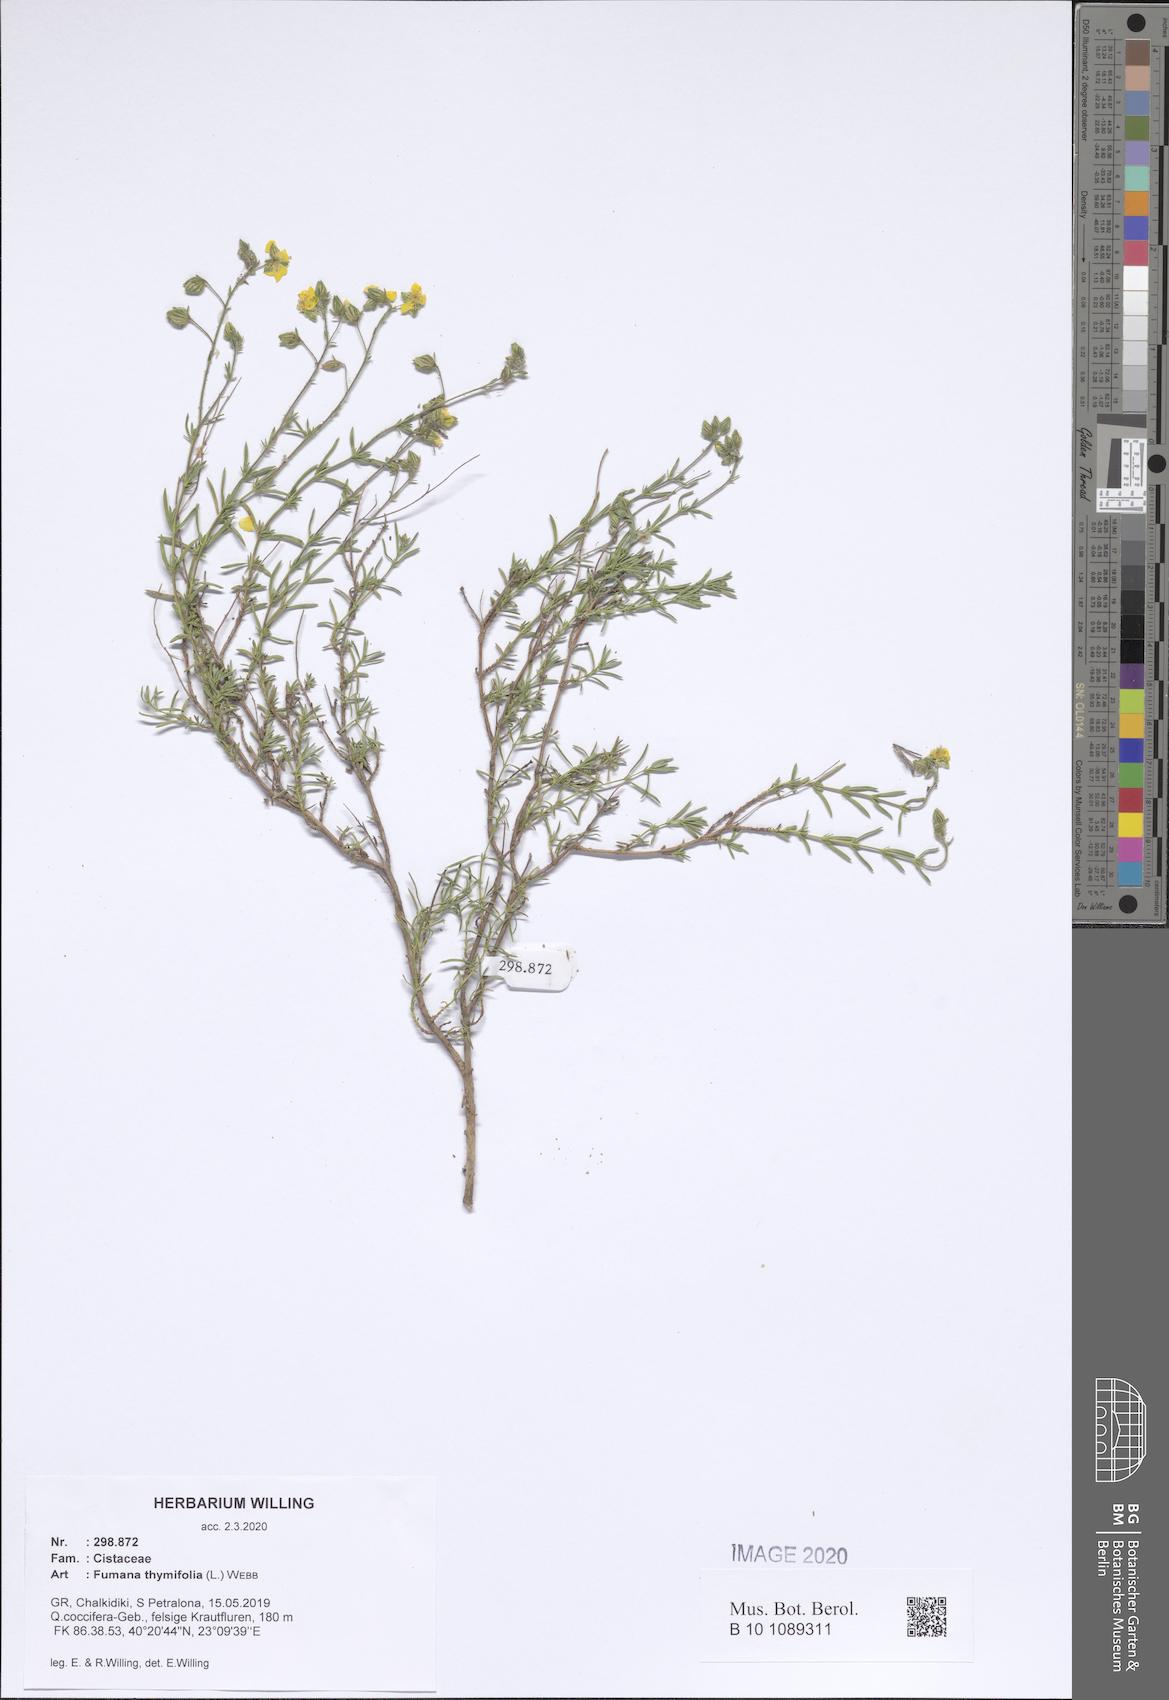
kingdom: Plantae
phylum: Tracheophyta
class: Magnoliopsida
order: Malvales
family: Cistaceae
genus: Fumana
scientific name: Fumana thymifolia
